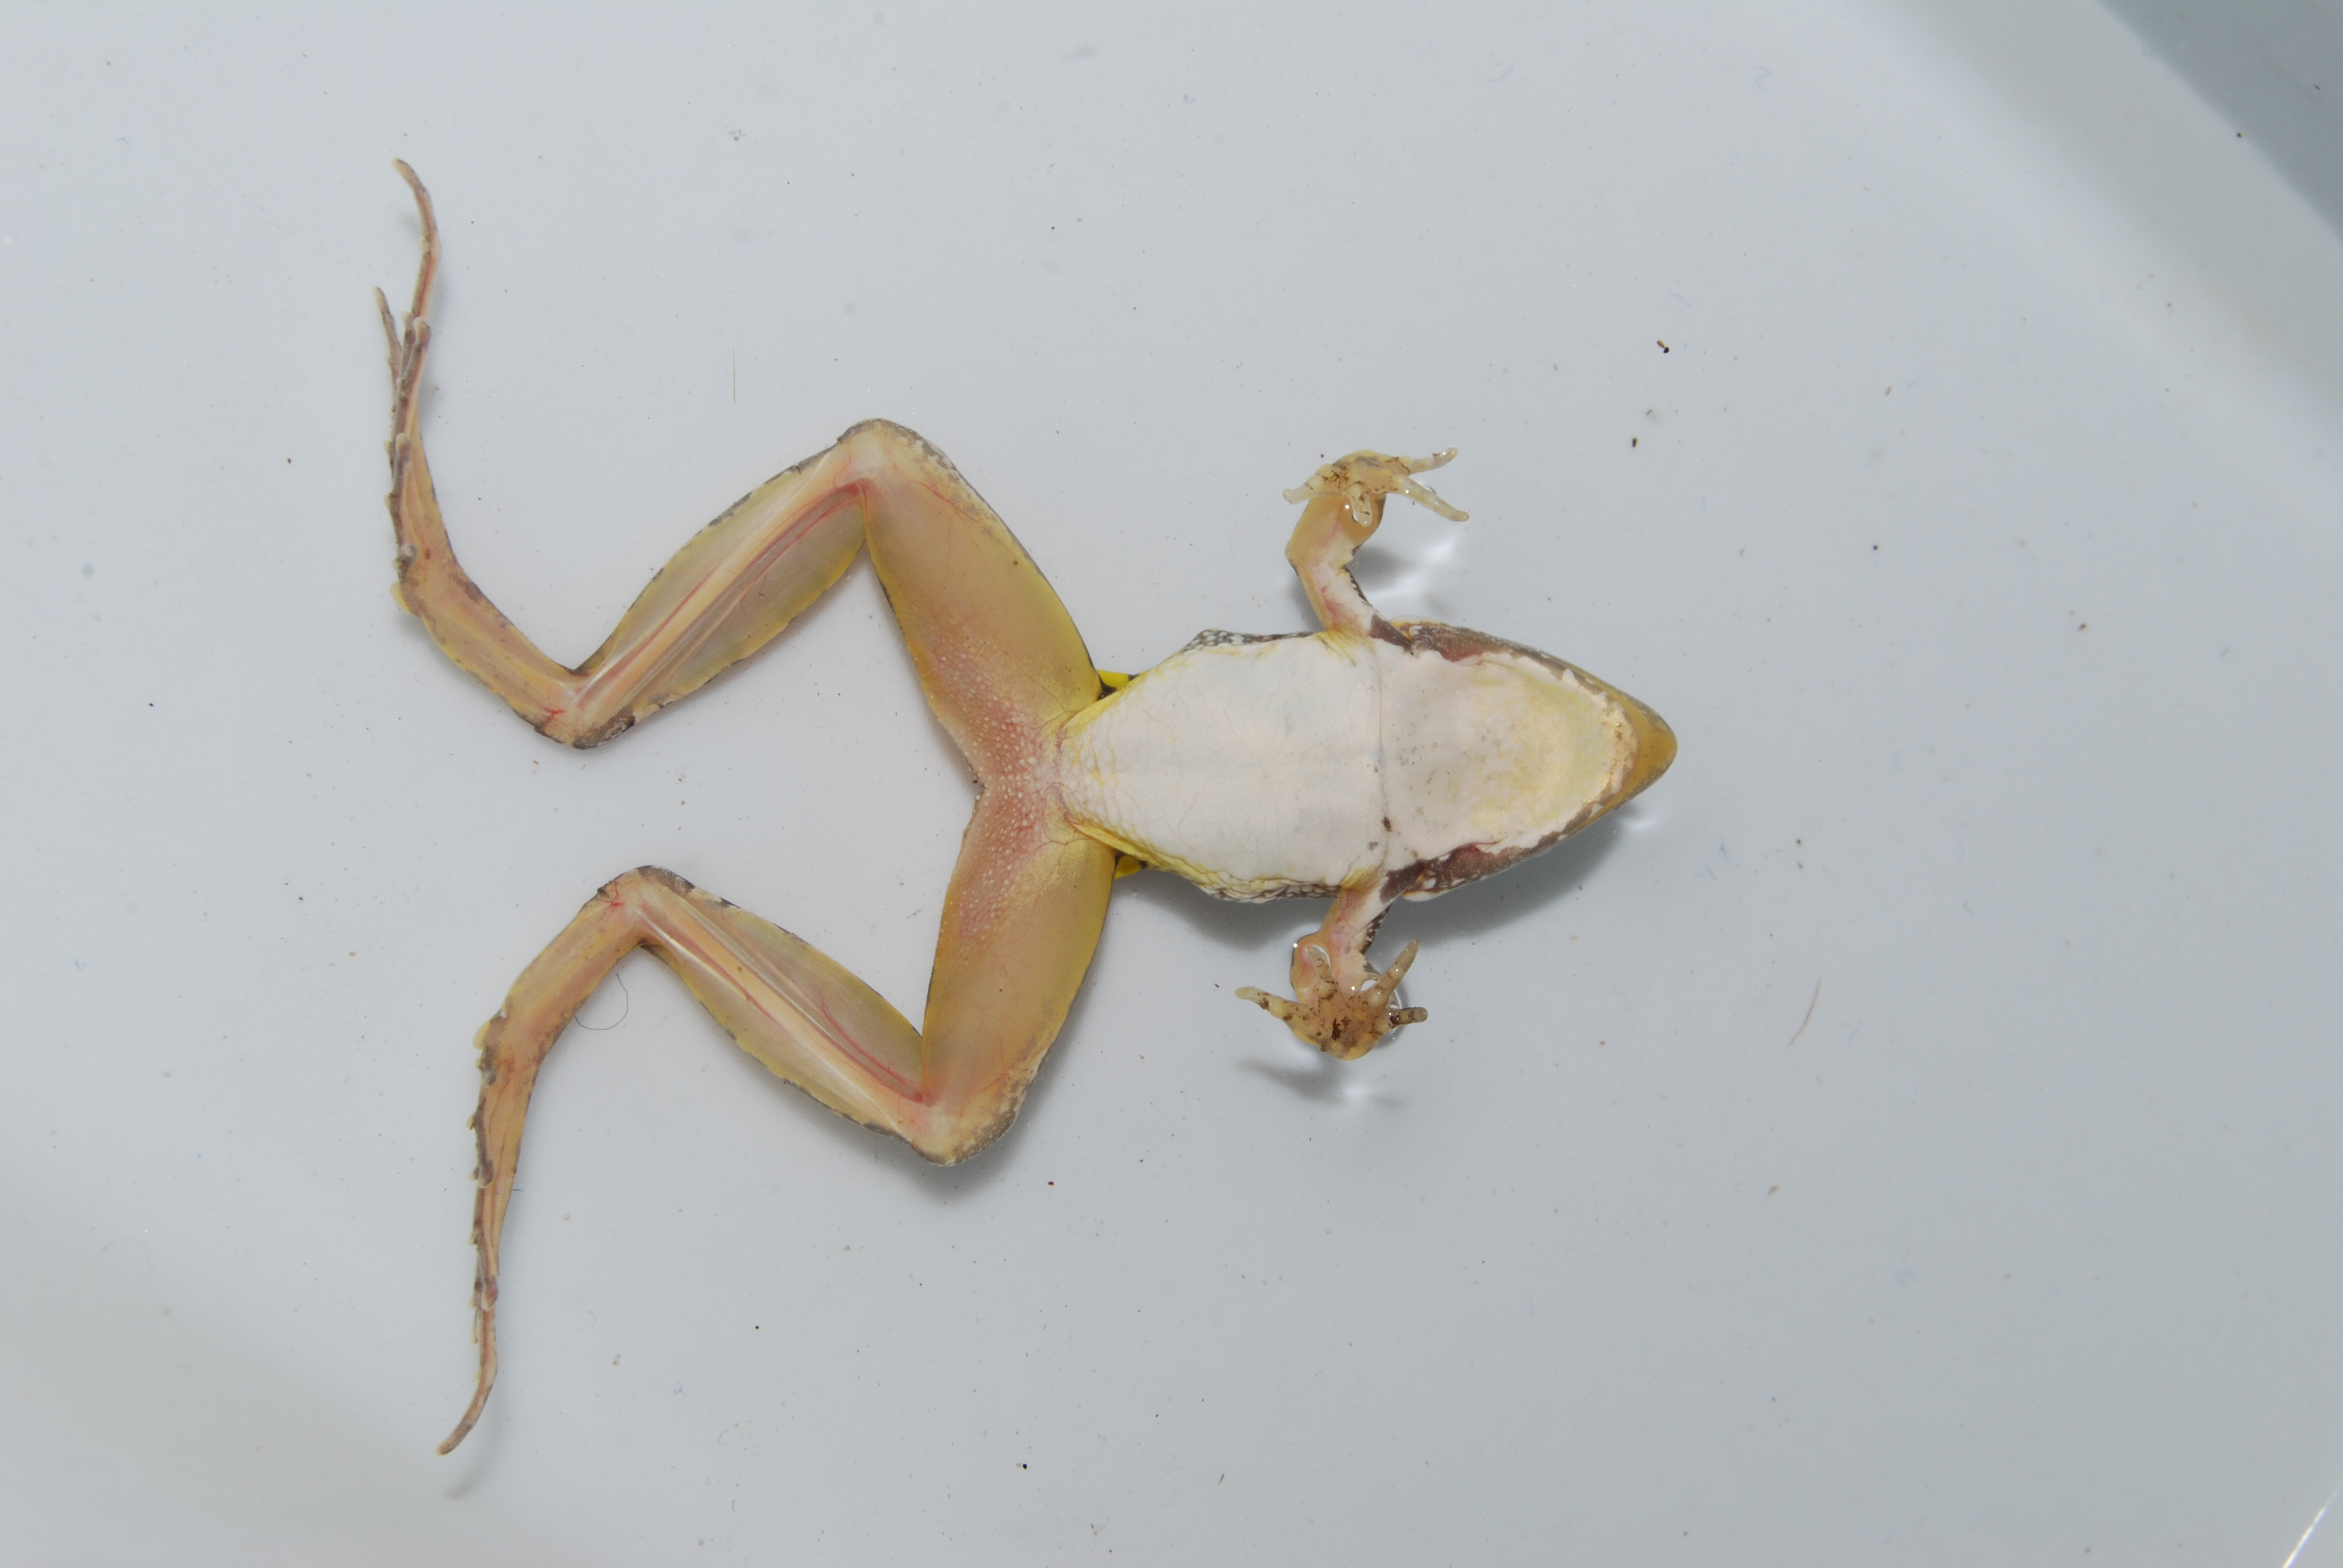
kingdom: Animalia
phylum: Chordata
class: Amphibia
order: Anura
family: Ptychadenidae
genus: Ptychadena
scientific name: Ptychadena guibei
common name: Guibe's grassland frog
